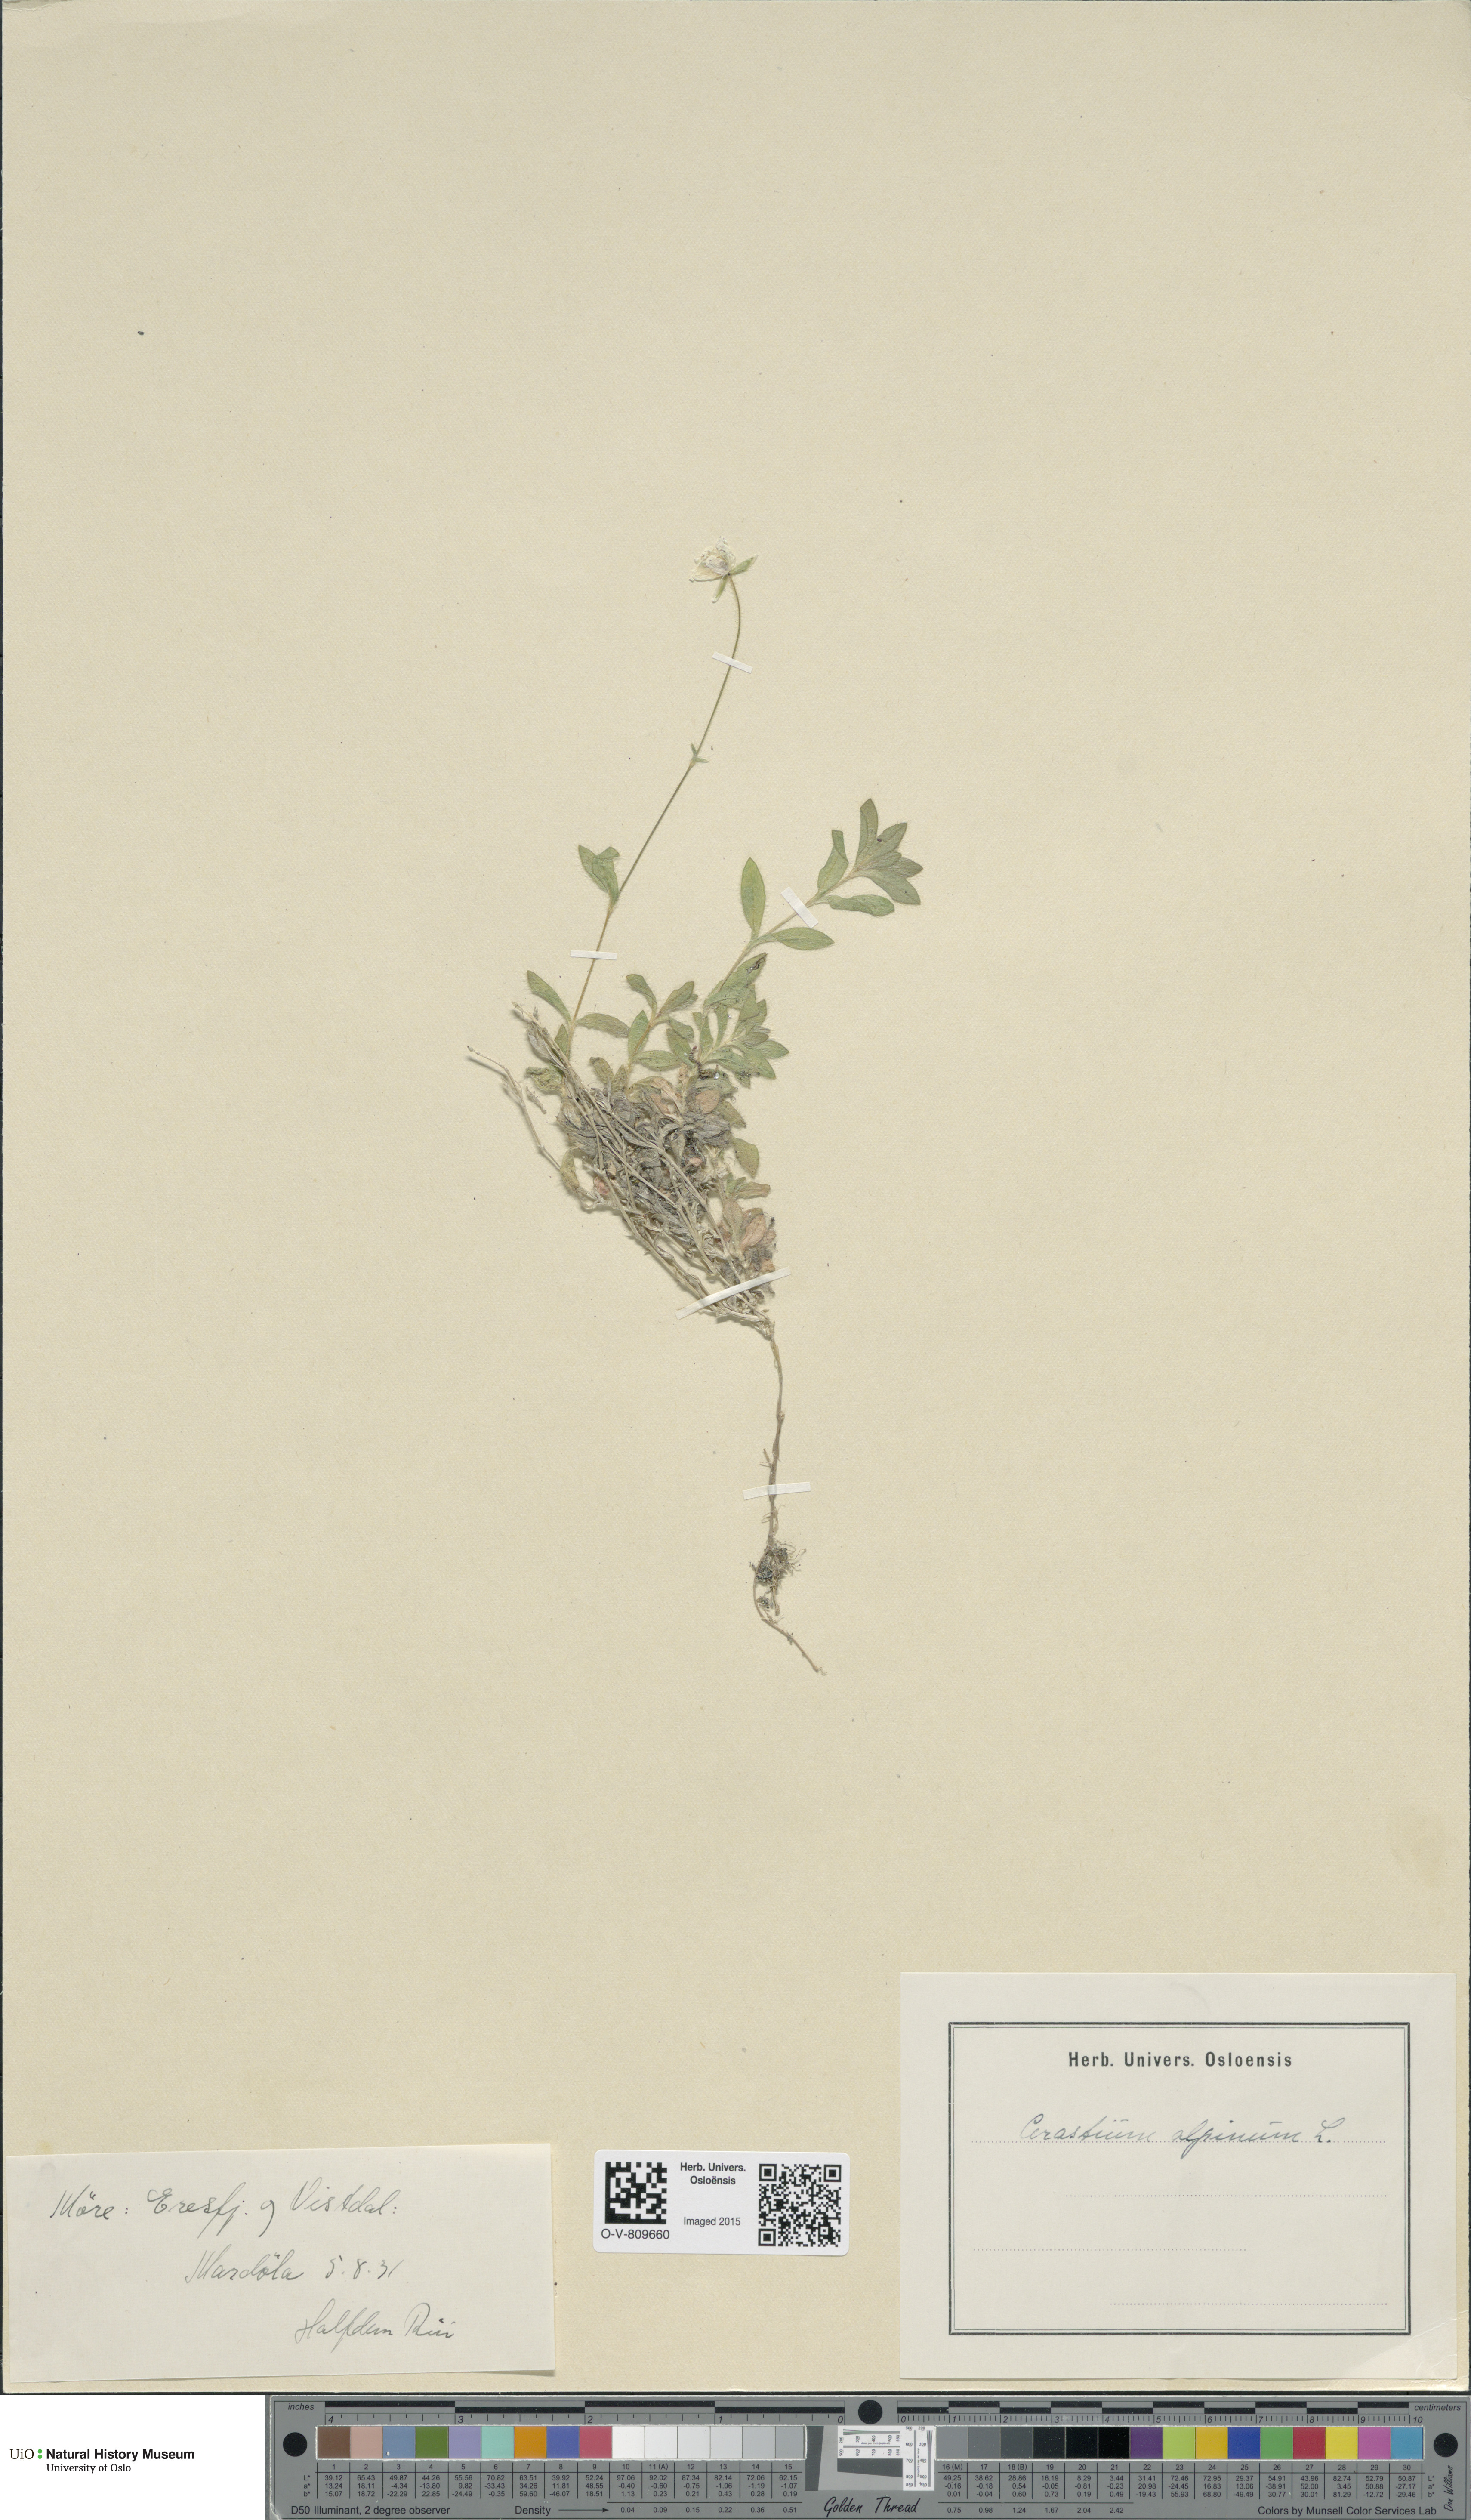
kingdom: Plantae
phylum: Tracheophyta
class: Magnoliopsida
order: Caryophyllales
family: Caryophyllaceae
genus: Cerastium
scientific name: Cerastium alpinum
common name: Alpine mouse-ear
